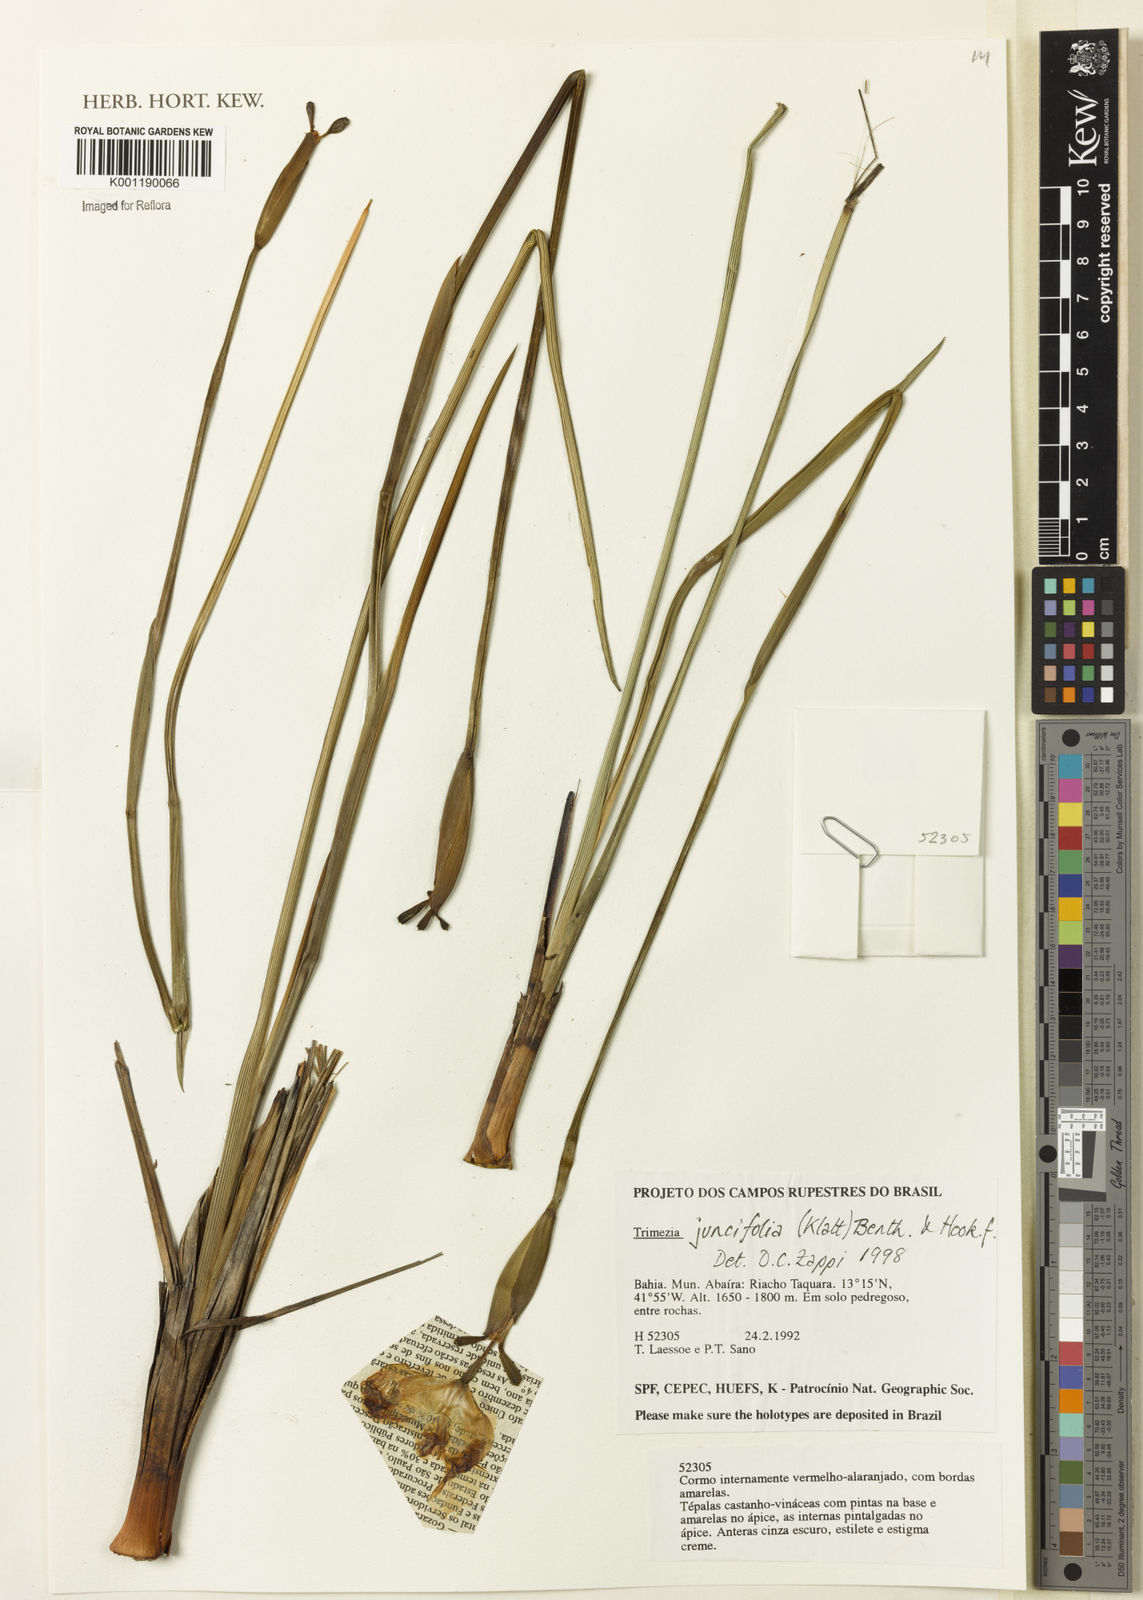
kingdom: Plantae
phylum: Tracheophyta
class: Liliopsida
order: Asparagales
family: Iridaceae
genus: Trimezia
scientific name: Trimezia juncifolia
